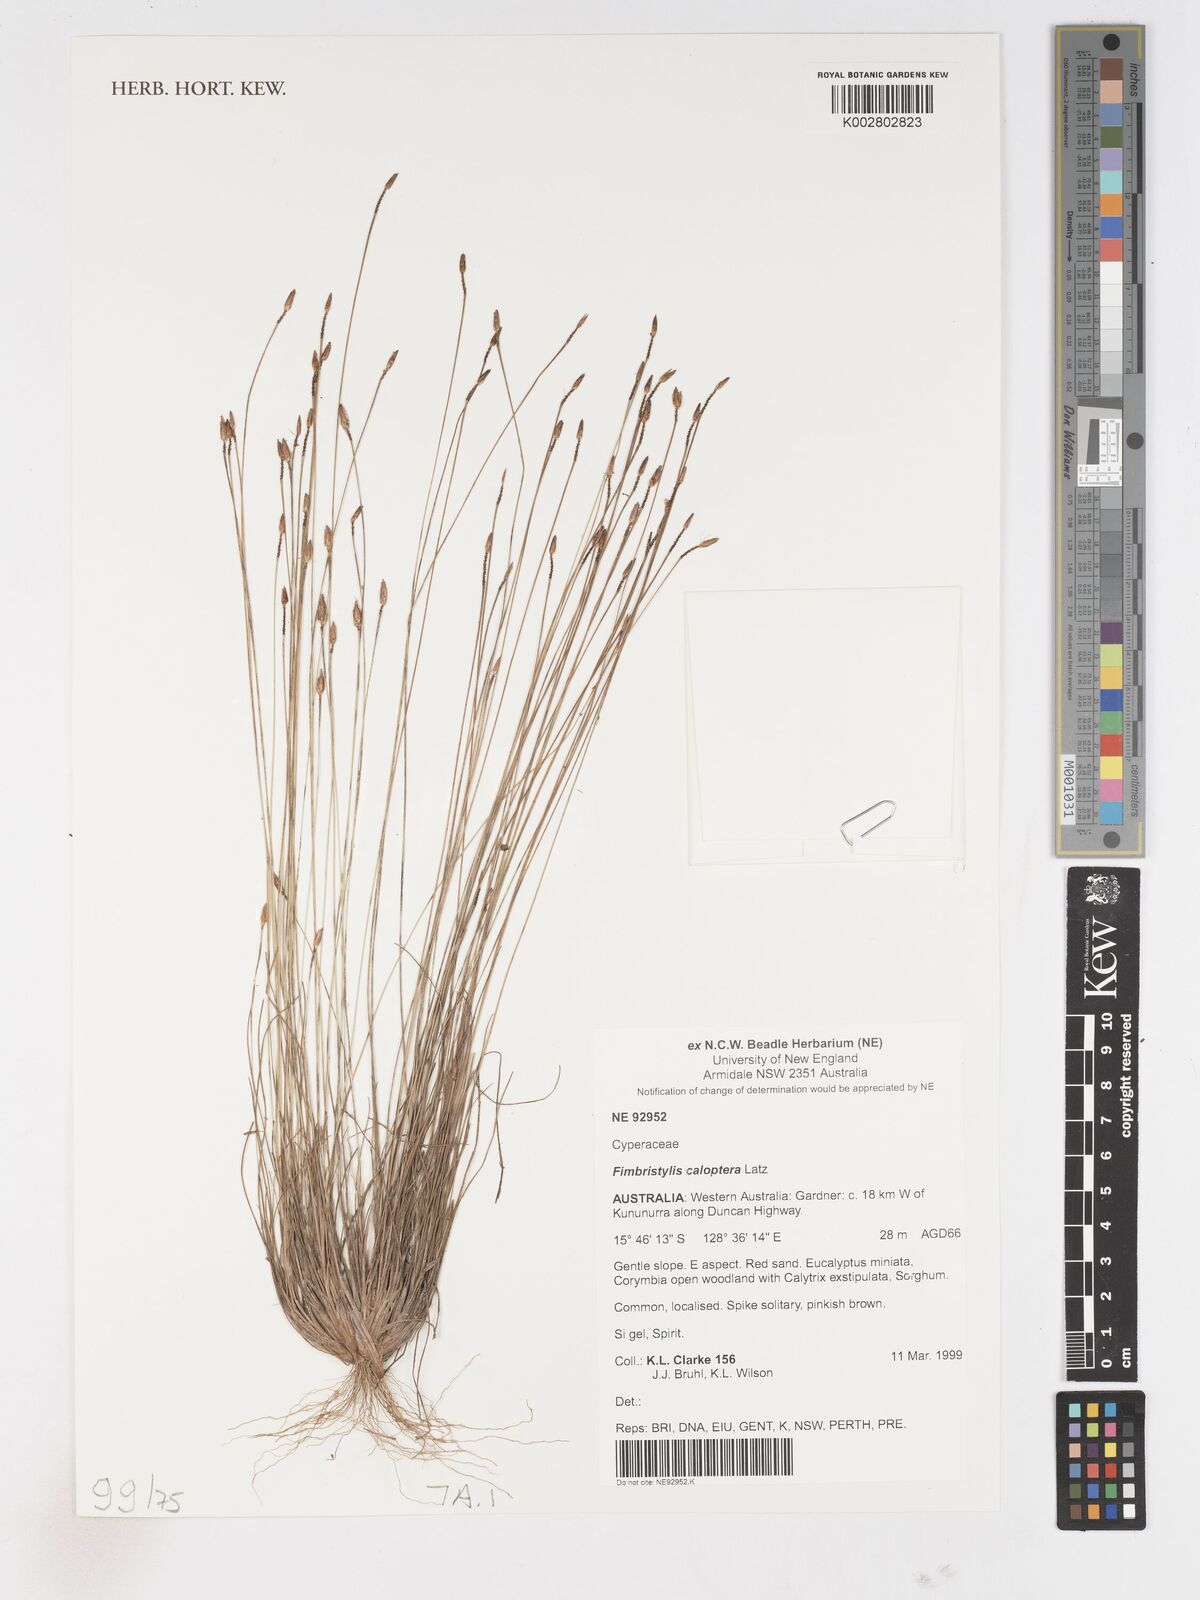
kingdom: Plantae
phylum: Tracheophyta
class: Liliopsida
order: Poales
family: Cyperaceae
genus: Fimbristylis
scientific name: Fimbristylis caloptera
